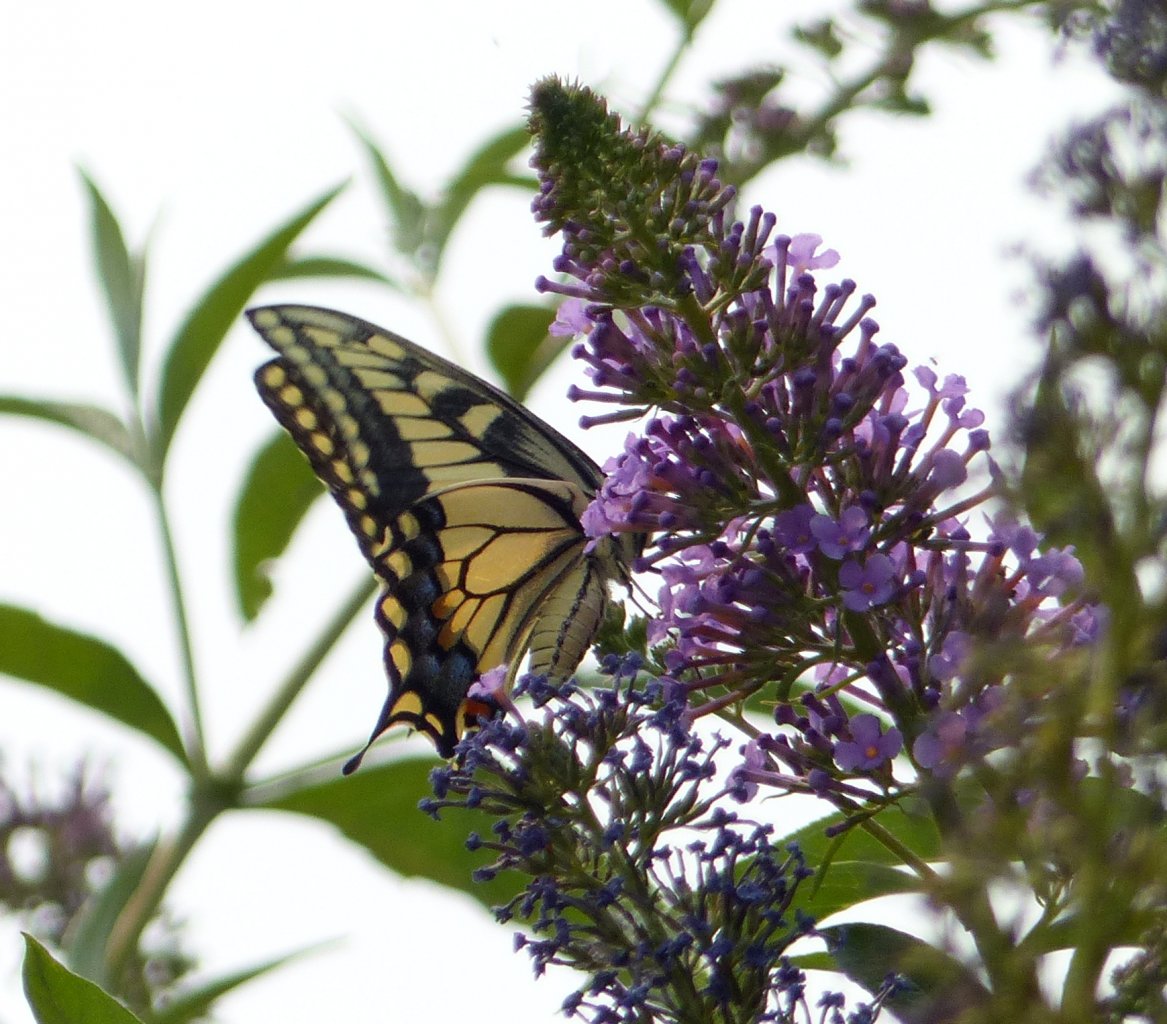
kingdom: Animalia
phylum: Arthropoda
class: Insecta
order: Lepidoptera
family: Papilionidae
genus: Papilio
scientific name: Papilio machaon
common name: Old World Swallowtail
